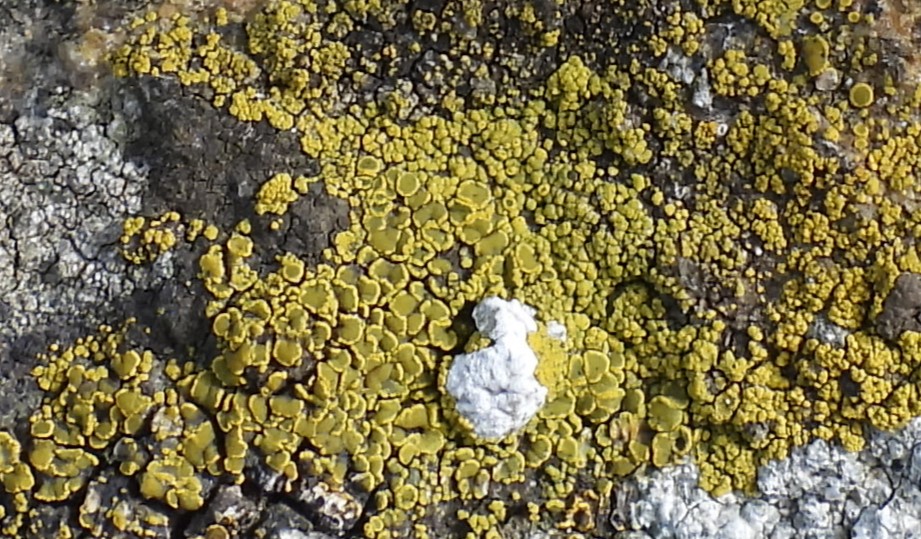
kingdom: Fungi
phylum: Ascomycota
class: Candelariomycetes
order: Candelariales
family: Candelariaceae
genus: Candelariella
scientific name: Candelariella vitellina
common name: almindelig æggeblommelav
